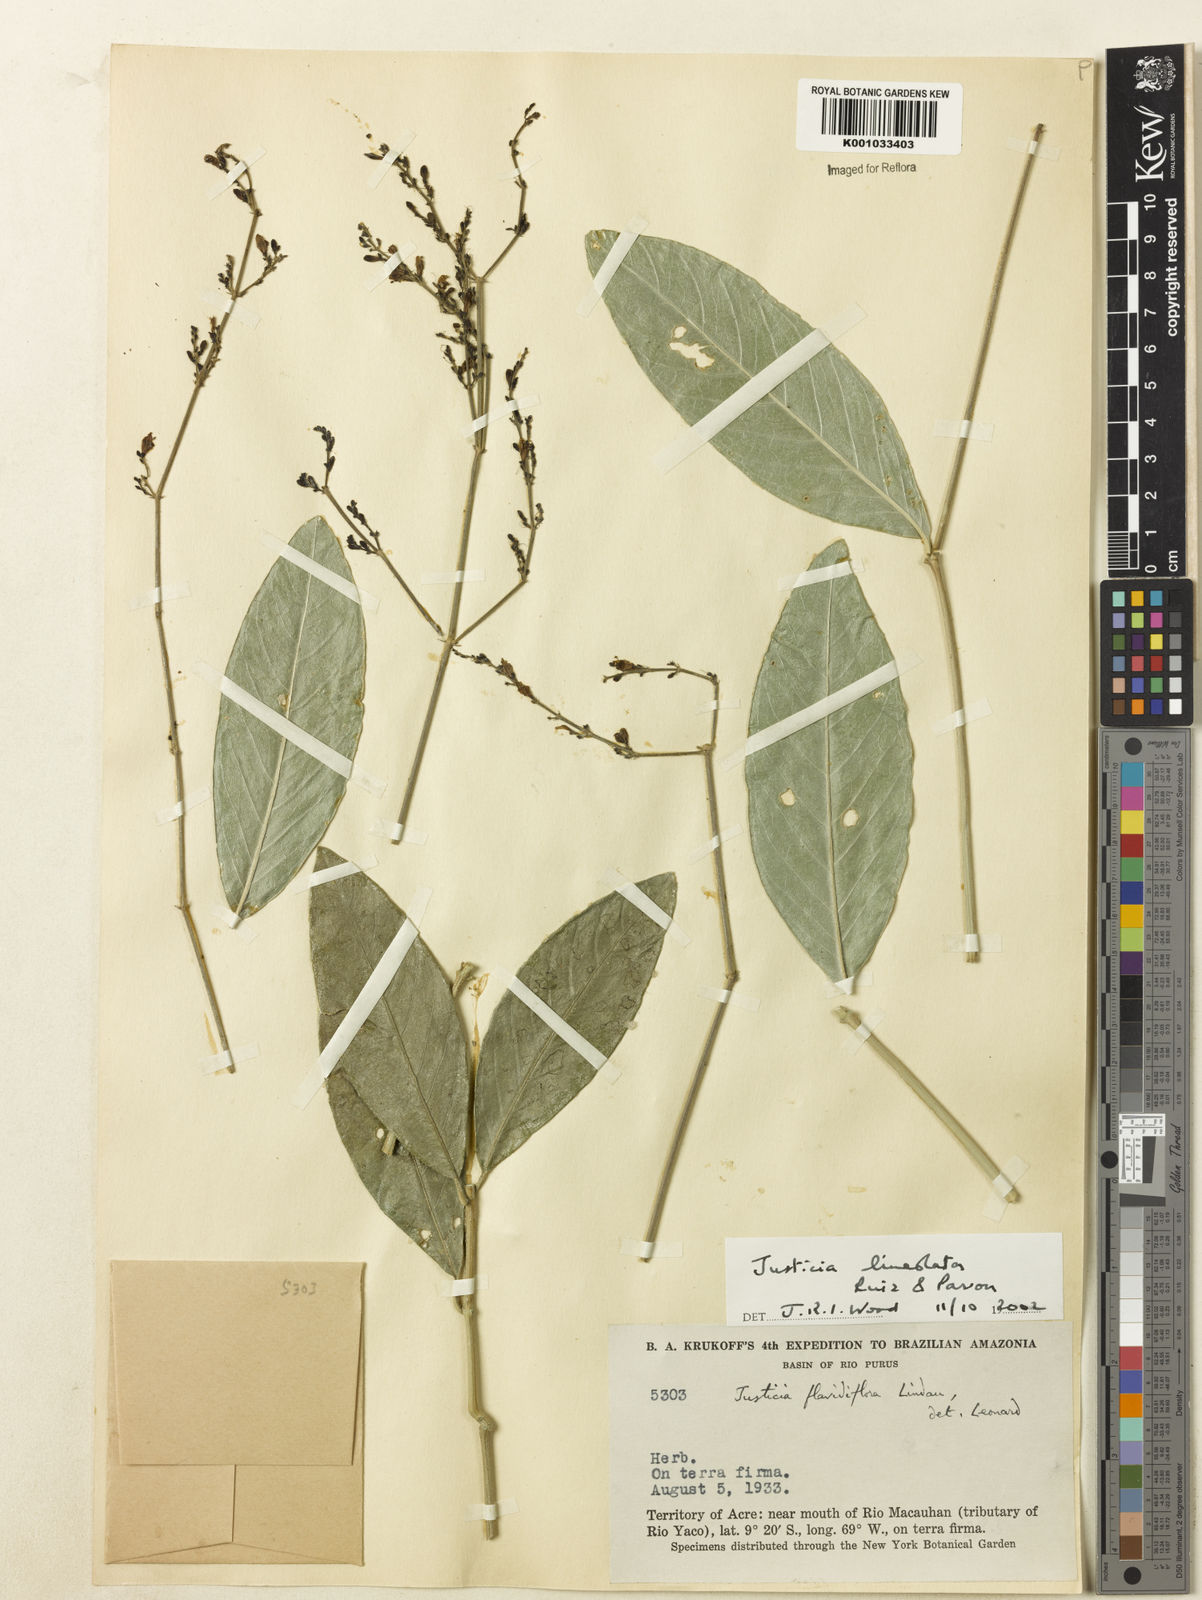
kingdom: Plantae
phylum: Tracheophyta
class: Magnoliopsida
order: Lamiales
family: Acanthaceae
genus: Justicia
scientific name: Justicia lineolata
